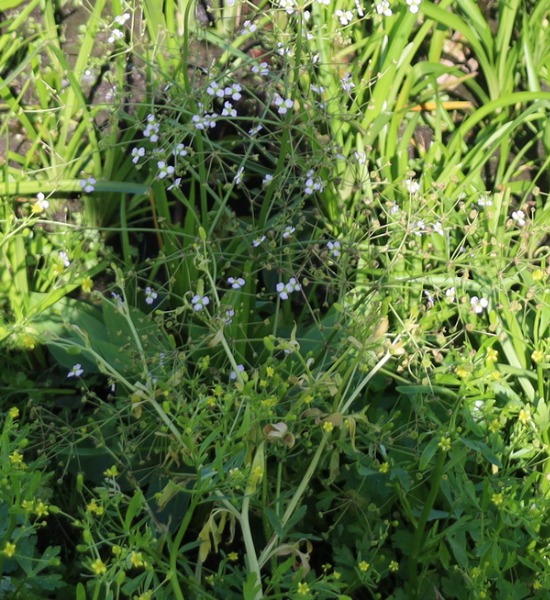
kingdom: Plantae
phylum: Tracheophyta
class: Liliopsida
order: Alismatales
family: Alismataceae
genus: Alisma
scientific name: Alisma plantago-aquatica
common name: Vejbred-skeblad
